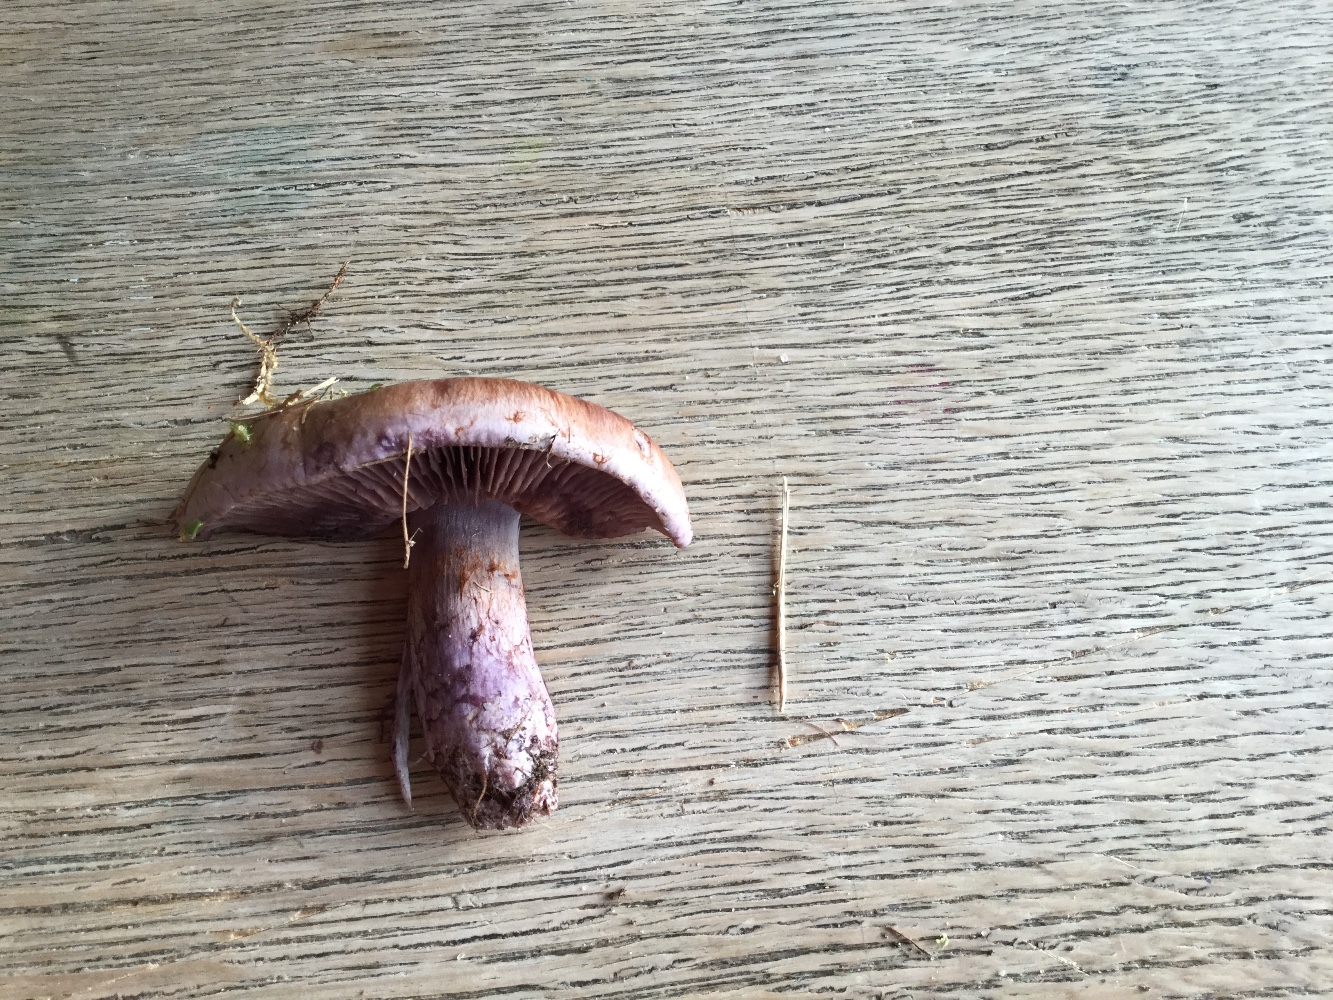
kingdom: Fungi
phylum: Basidiomycota
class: Agaricomycetes
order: Agaricales
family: Cortinariaceae
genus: Cortinarius
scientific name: Cortinarius largus
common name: violetrandet slørhat
